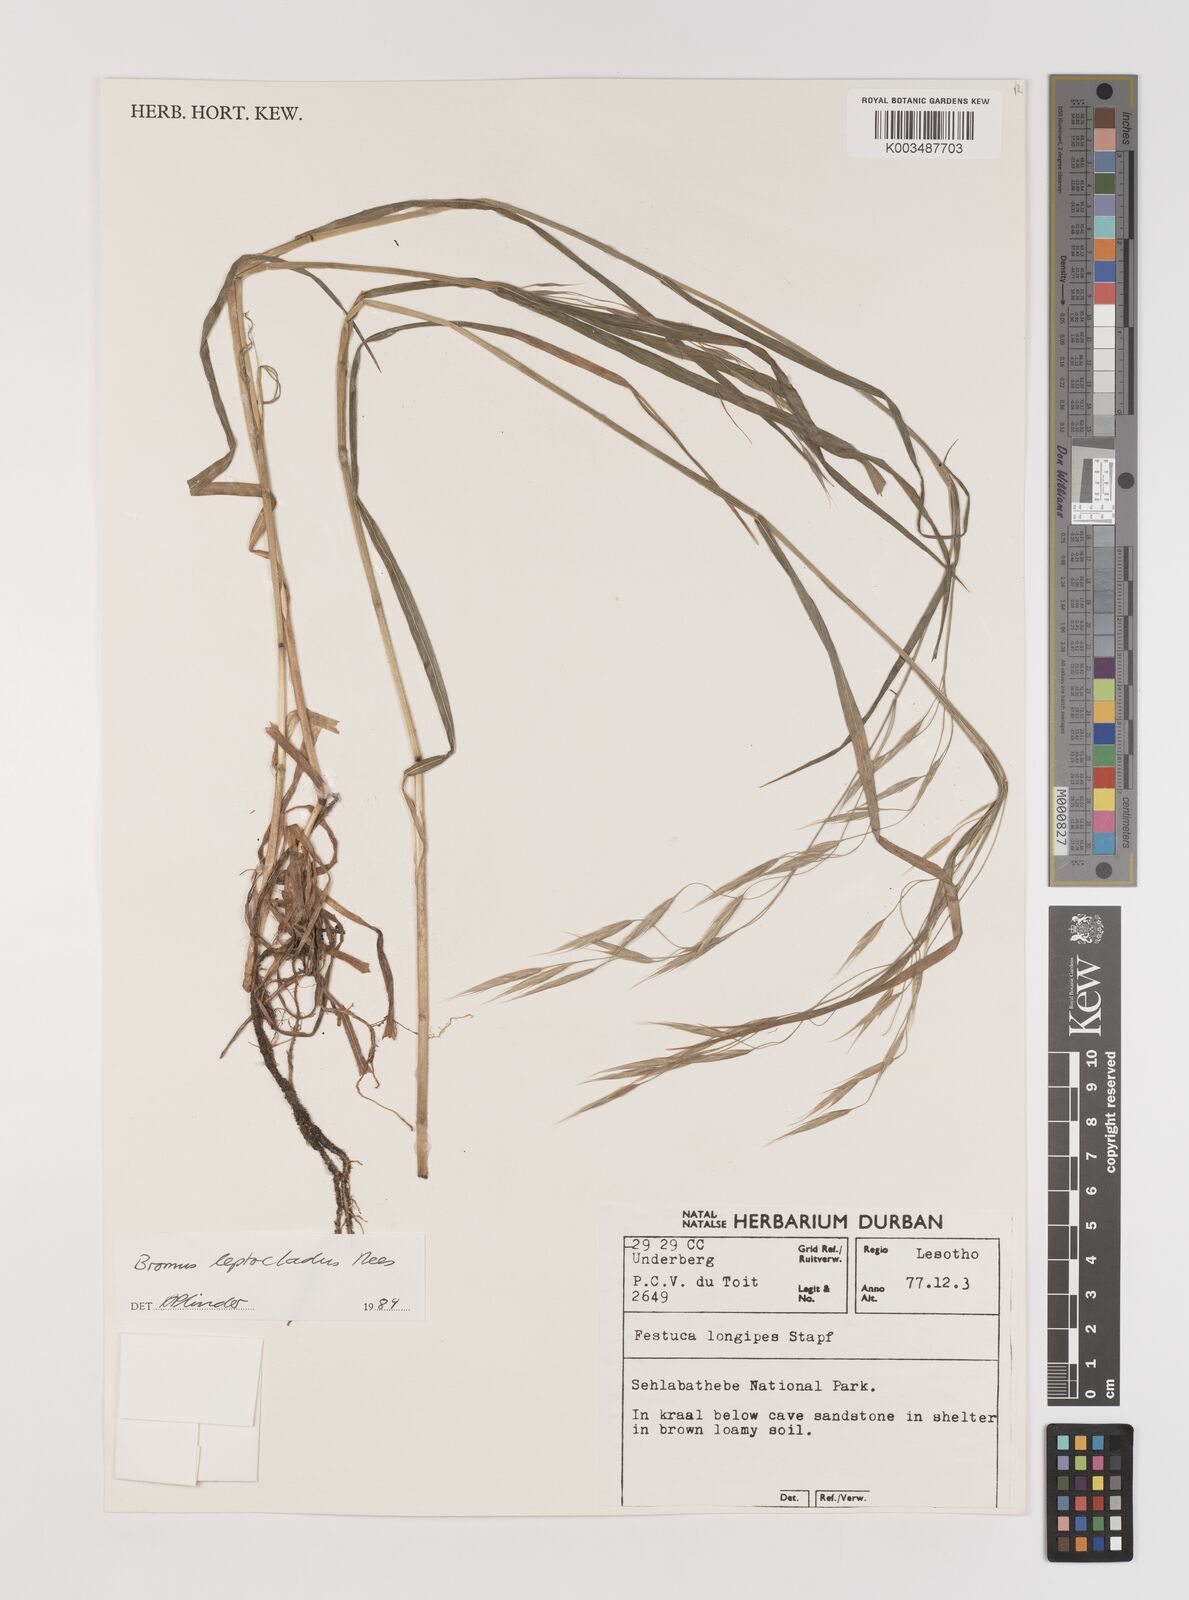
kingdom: Plantae
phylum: Tracheophyta
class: Liliopsida
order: Poales
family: Poaceae
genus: Bromus
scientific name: Bromus leptoclados
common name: Mountain bromegrass
